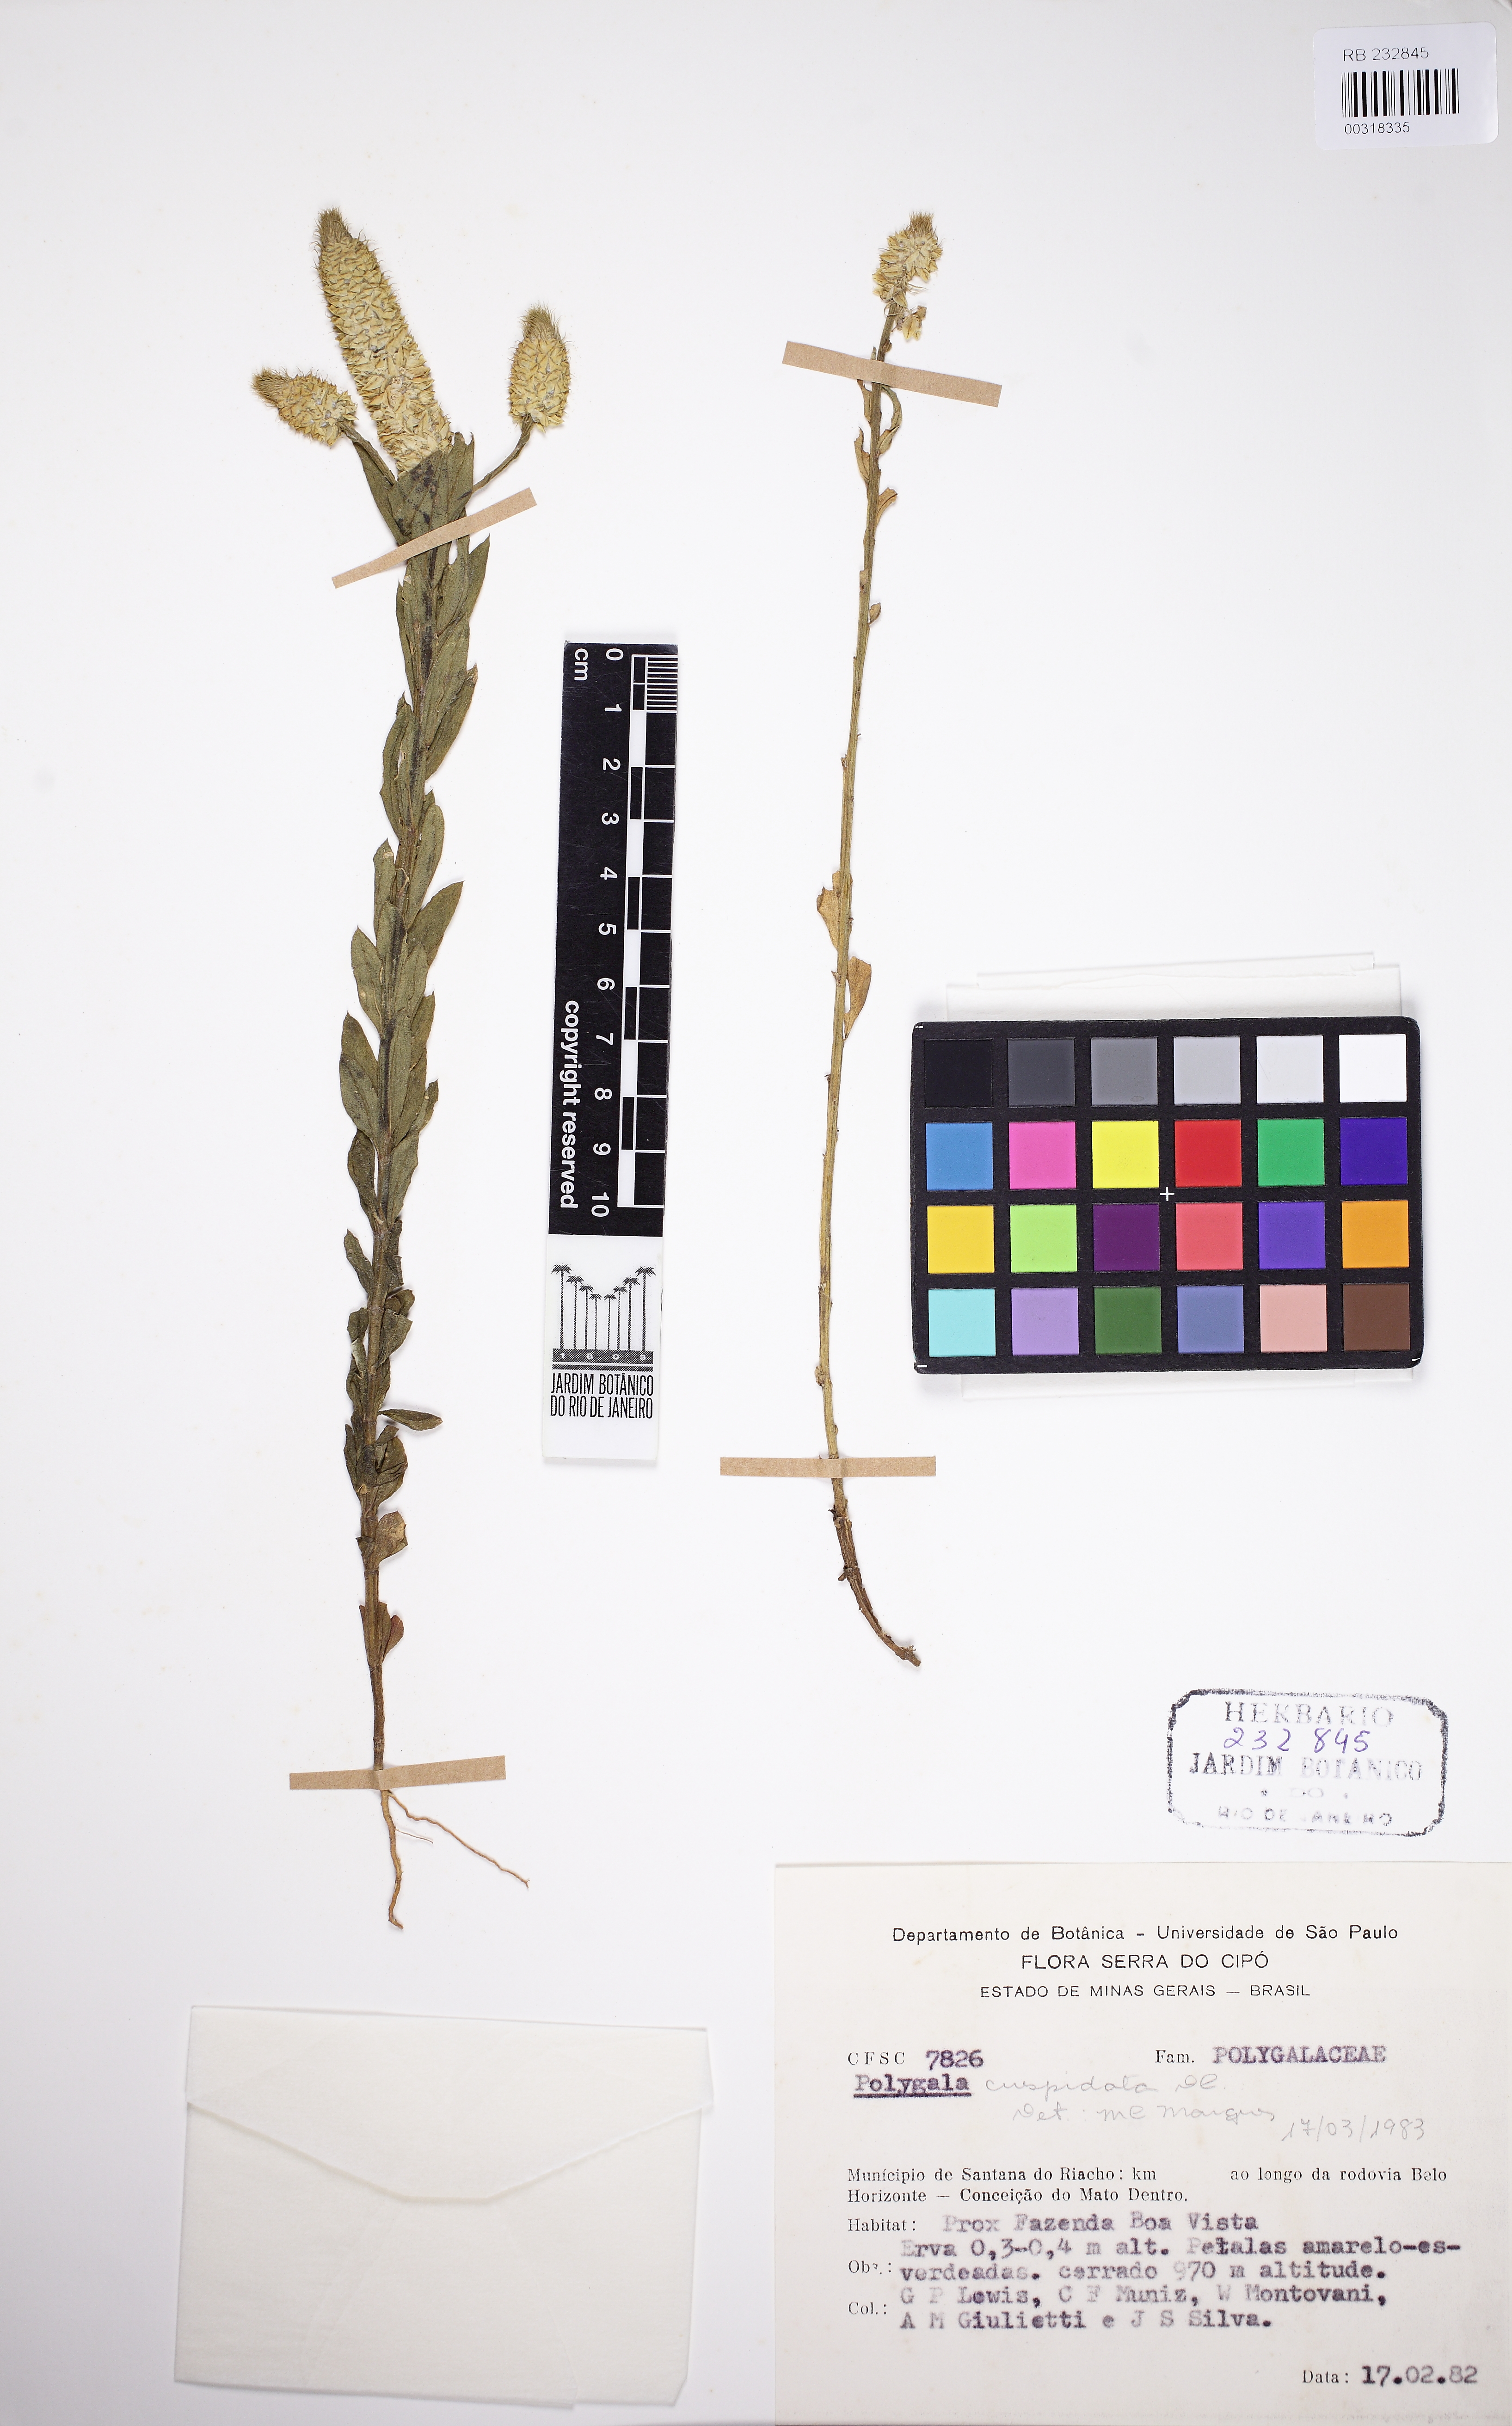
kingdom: Plantae
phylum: Tracheophyta
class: Magnoliopsida
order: Fabales
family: Polygalaceae
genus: Polygala
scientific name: Polygala cuspidata
